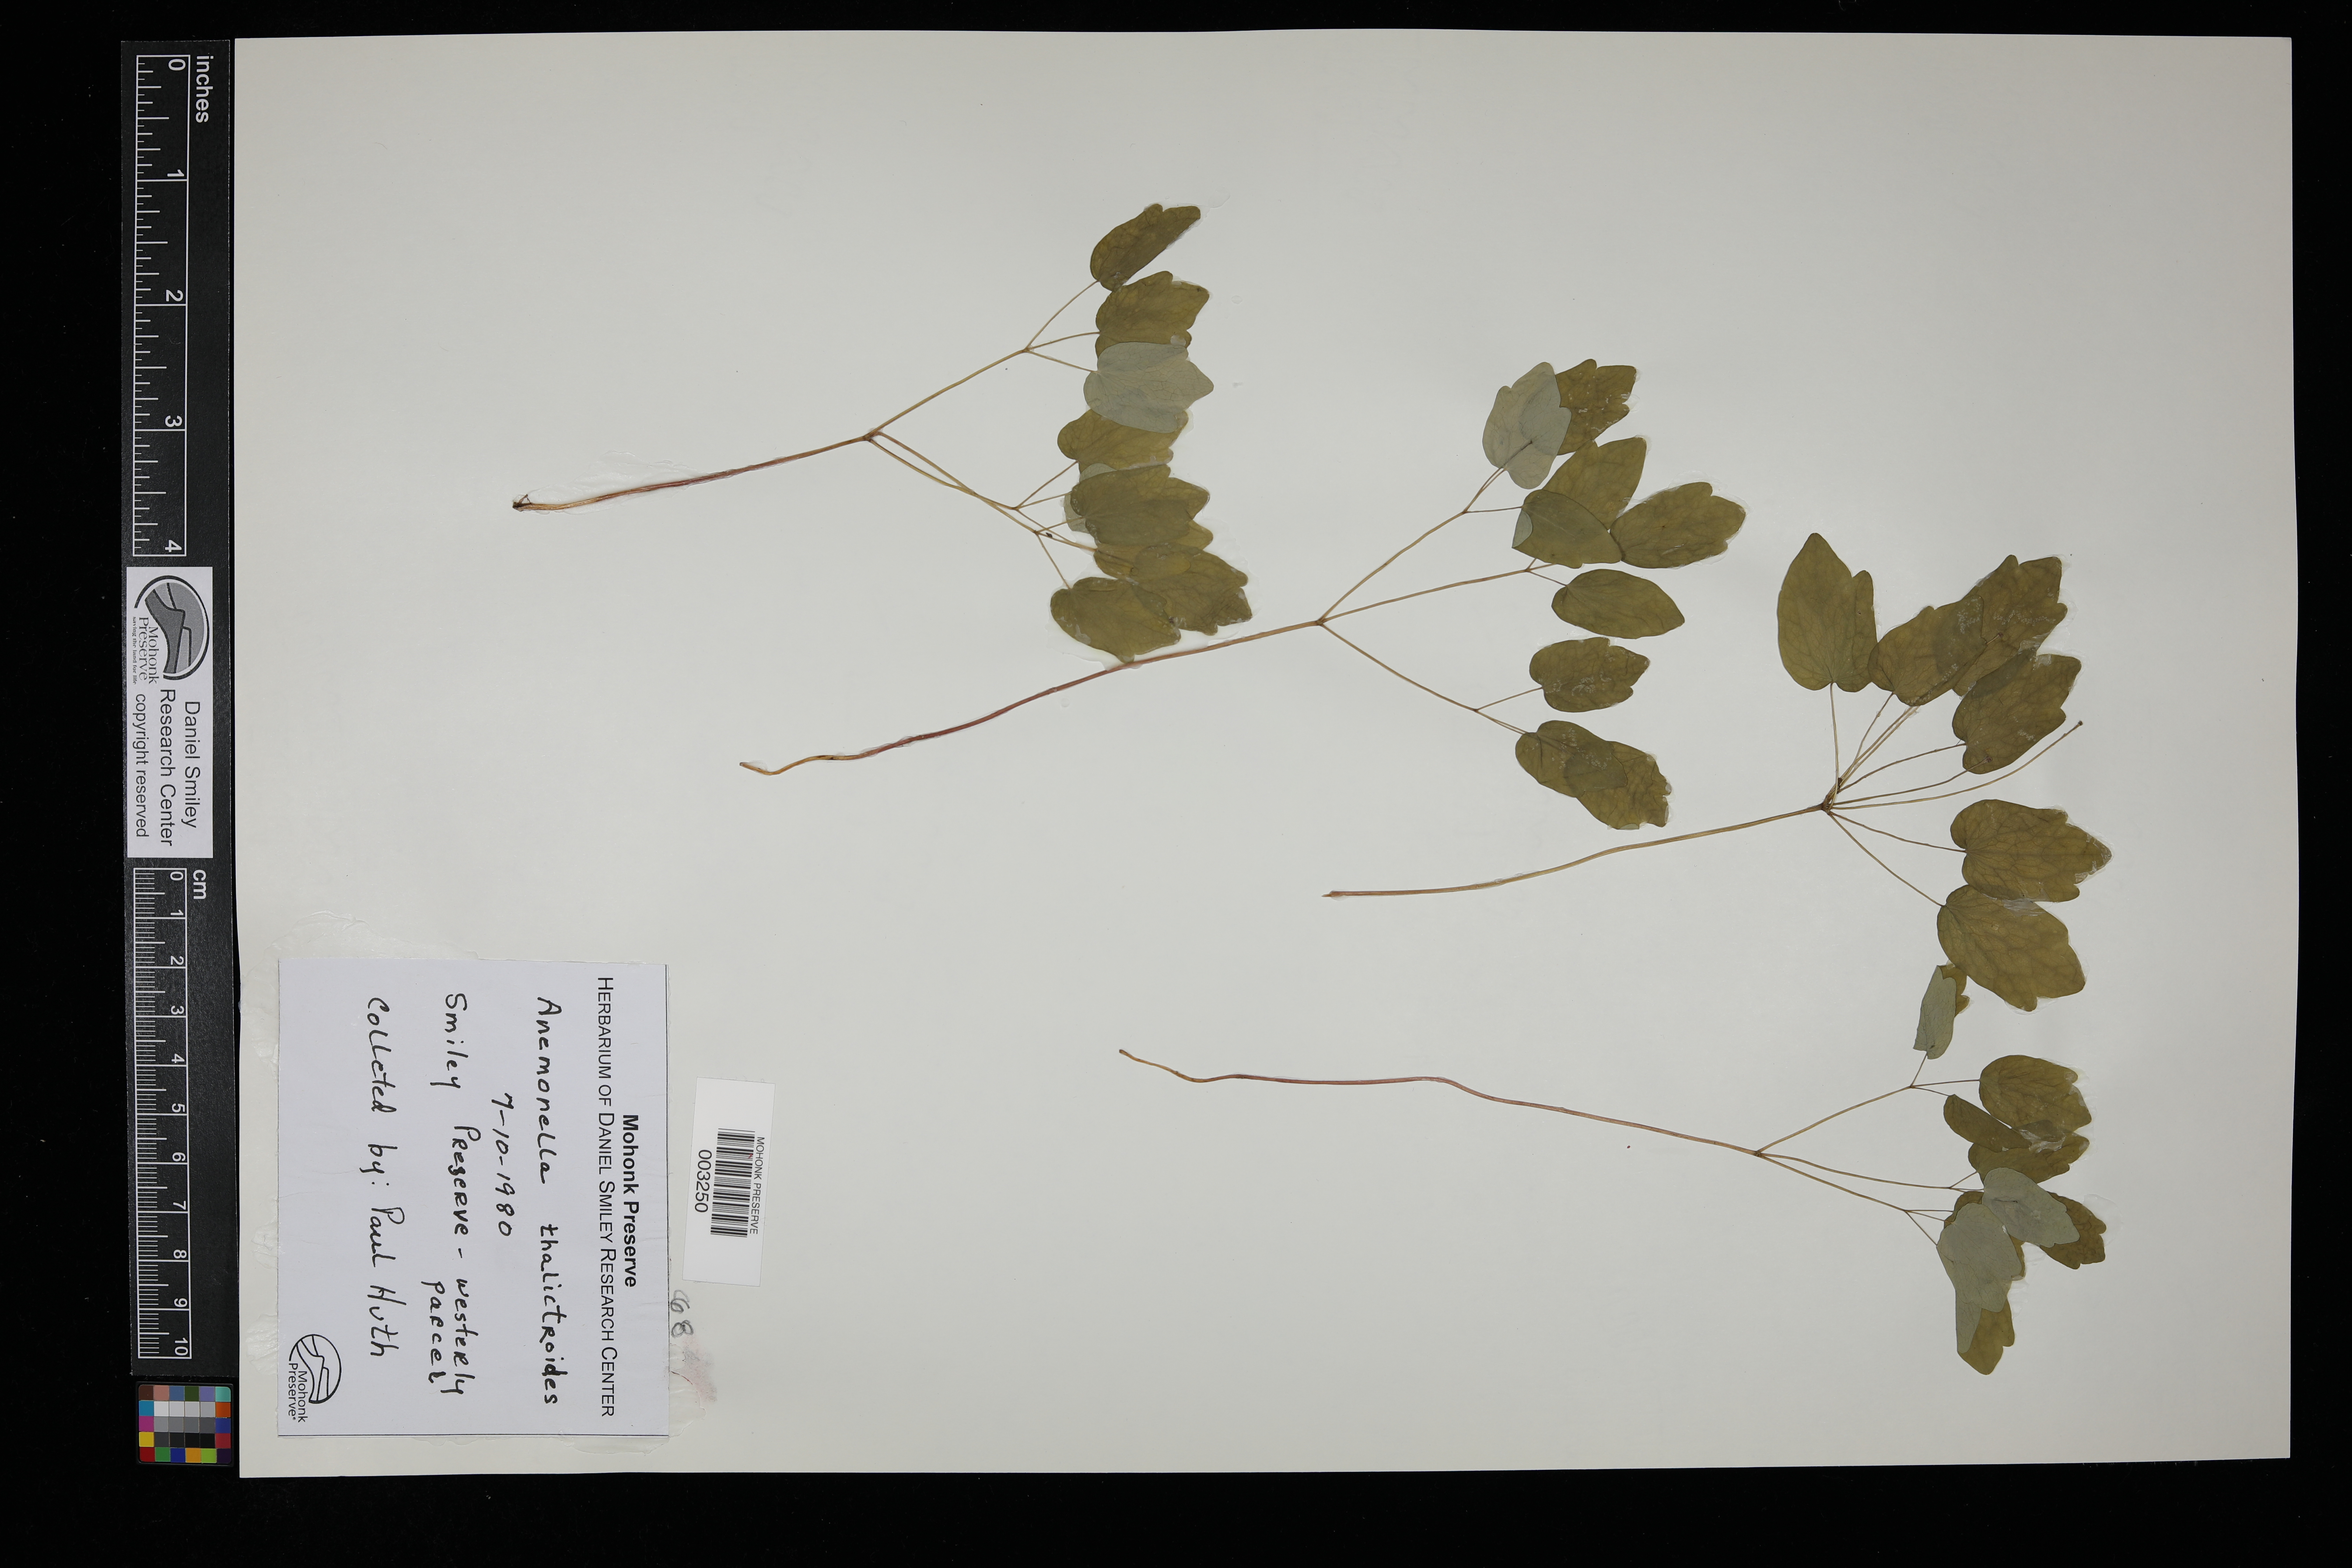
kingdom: Plantae
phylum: Tracheophyta
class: Magnoliopsida
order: Ranunculales
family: Ranunculaceae
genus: Thalictrum
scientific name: Thalictrum thalictroides
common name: Rue-anemone
